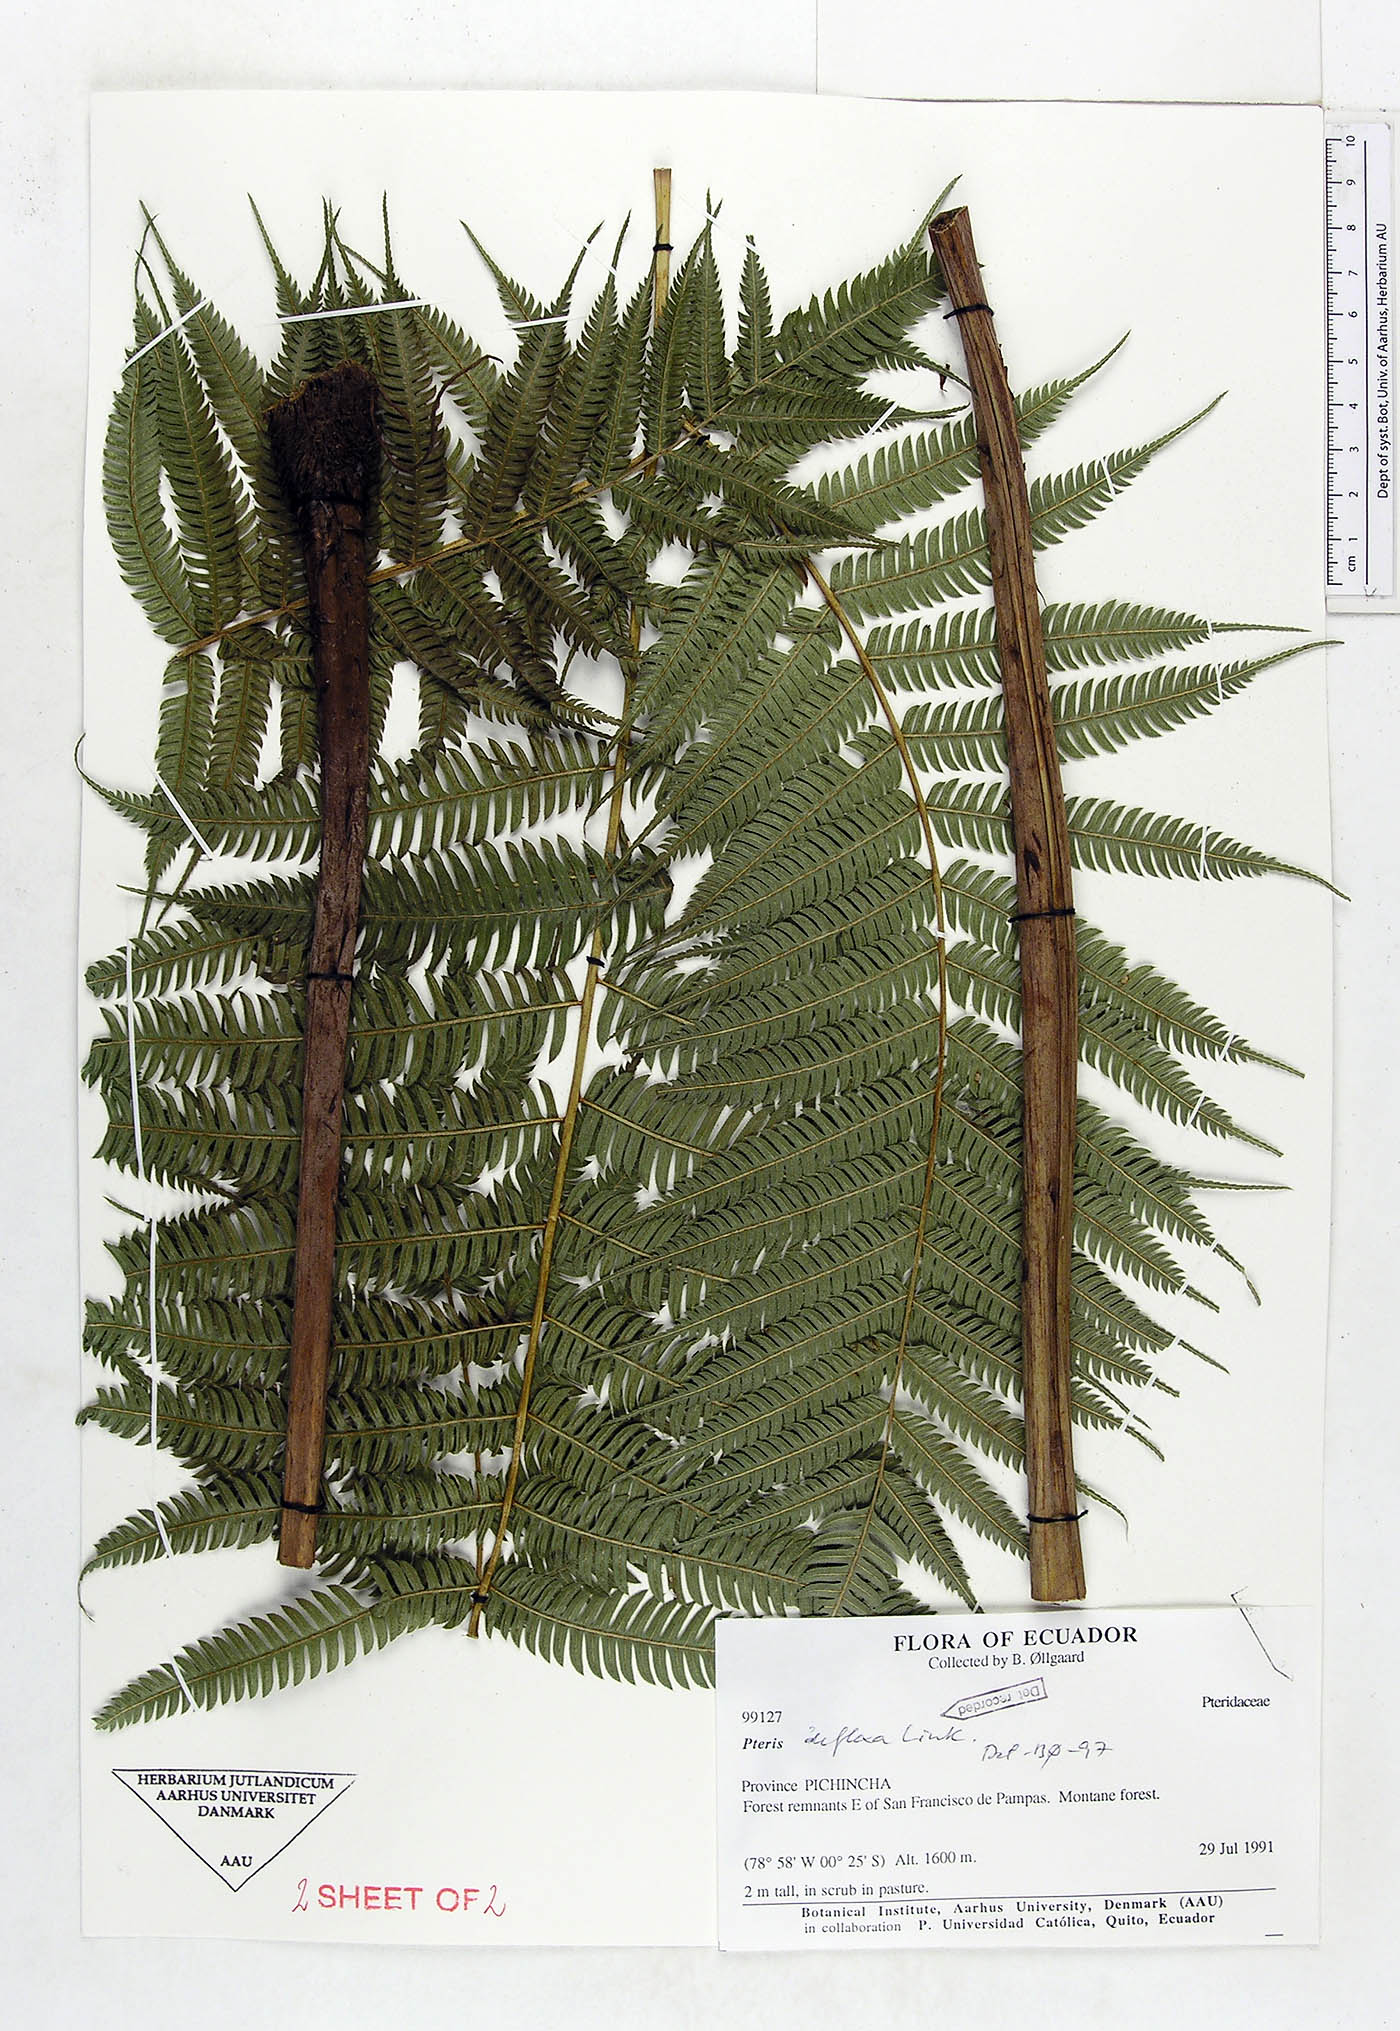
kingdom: Plantae
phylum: Tracheophyta
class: Polypodiopsida
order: Polypodiales
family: Pteridaceae
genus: Pteris
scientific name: Pteris deflexa
